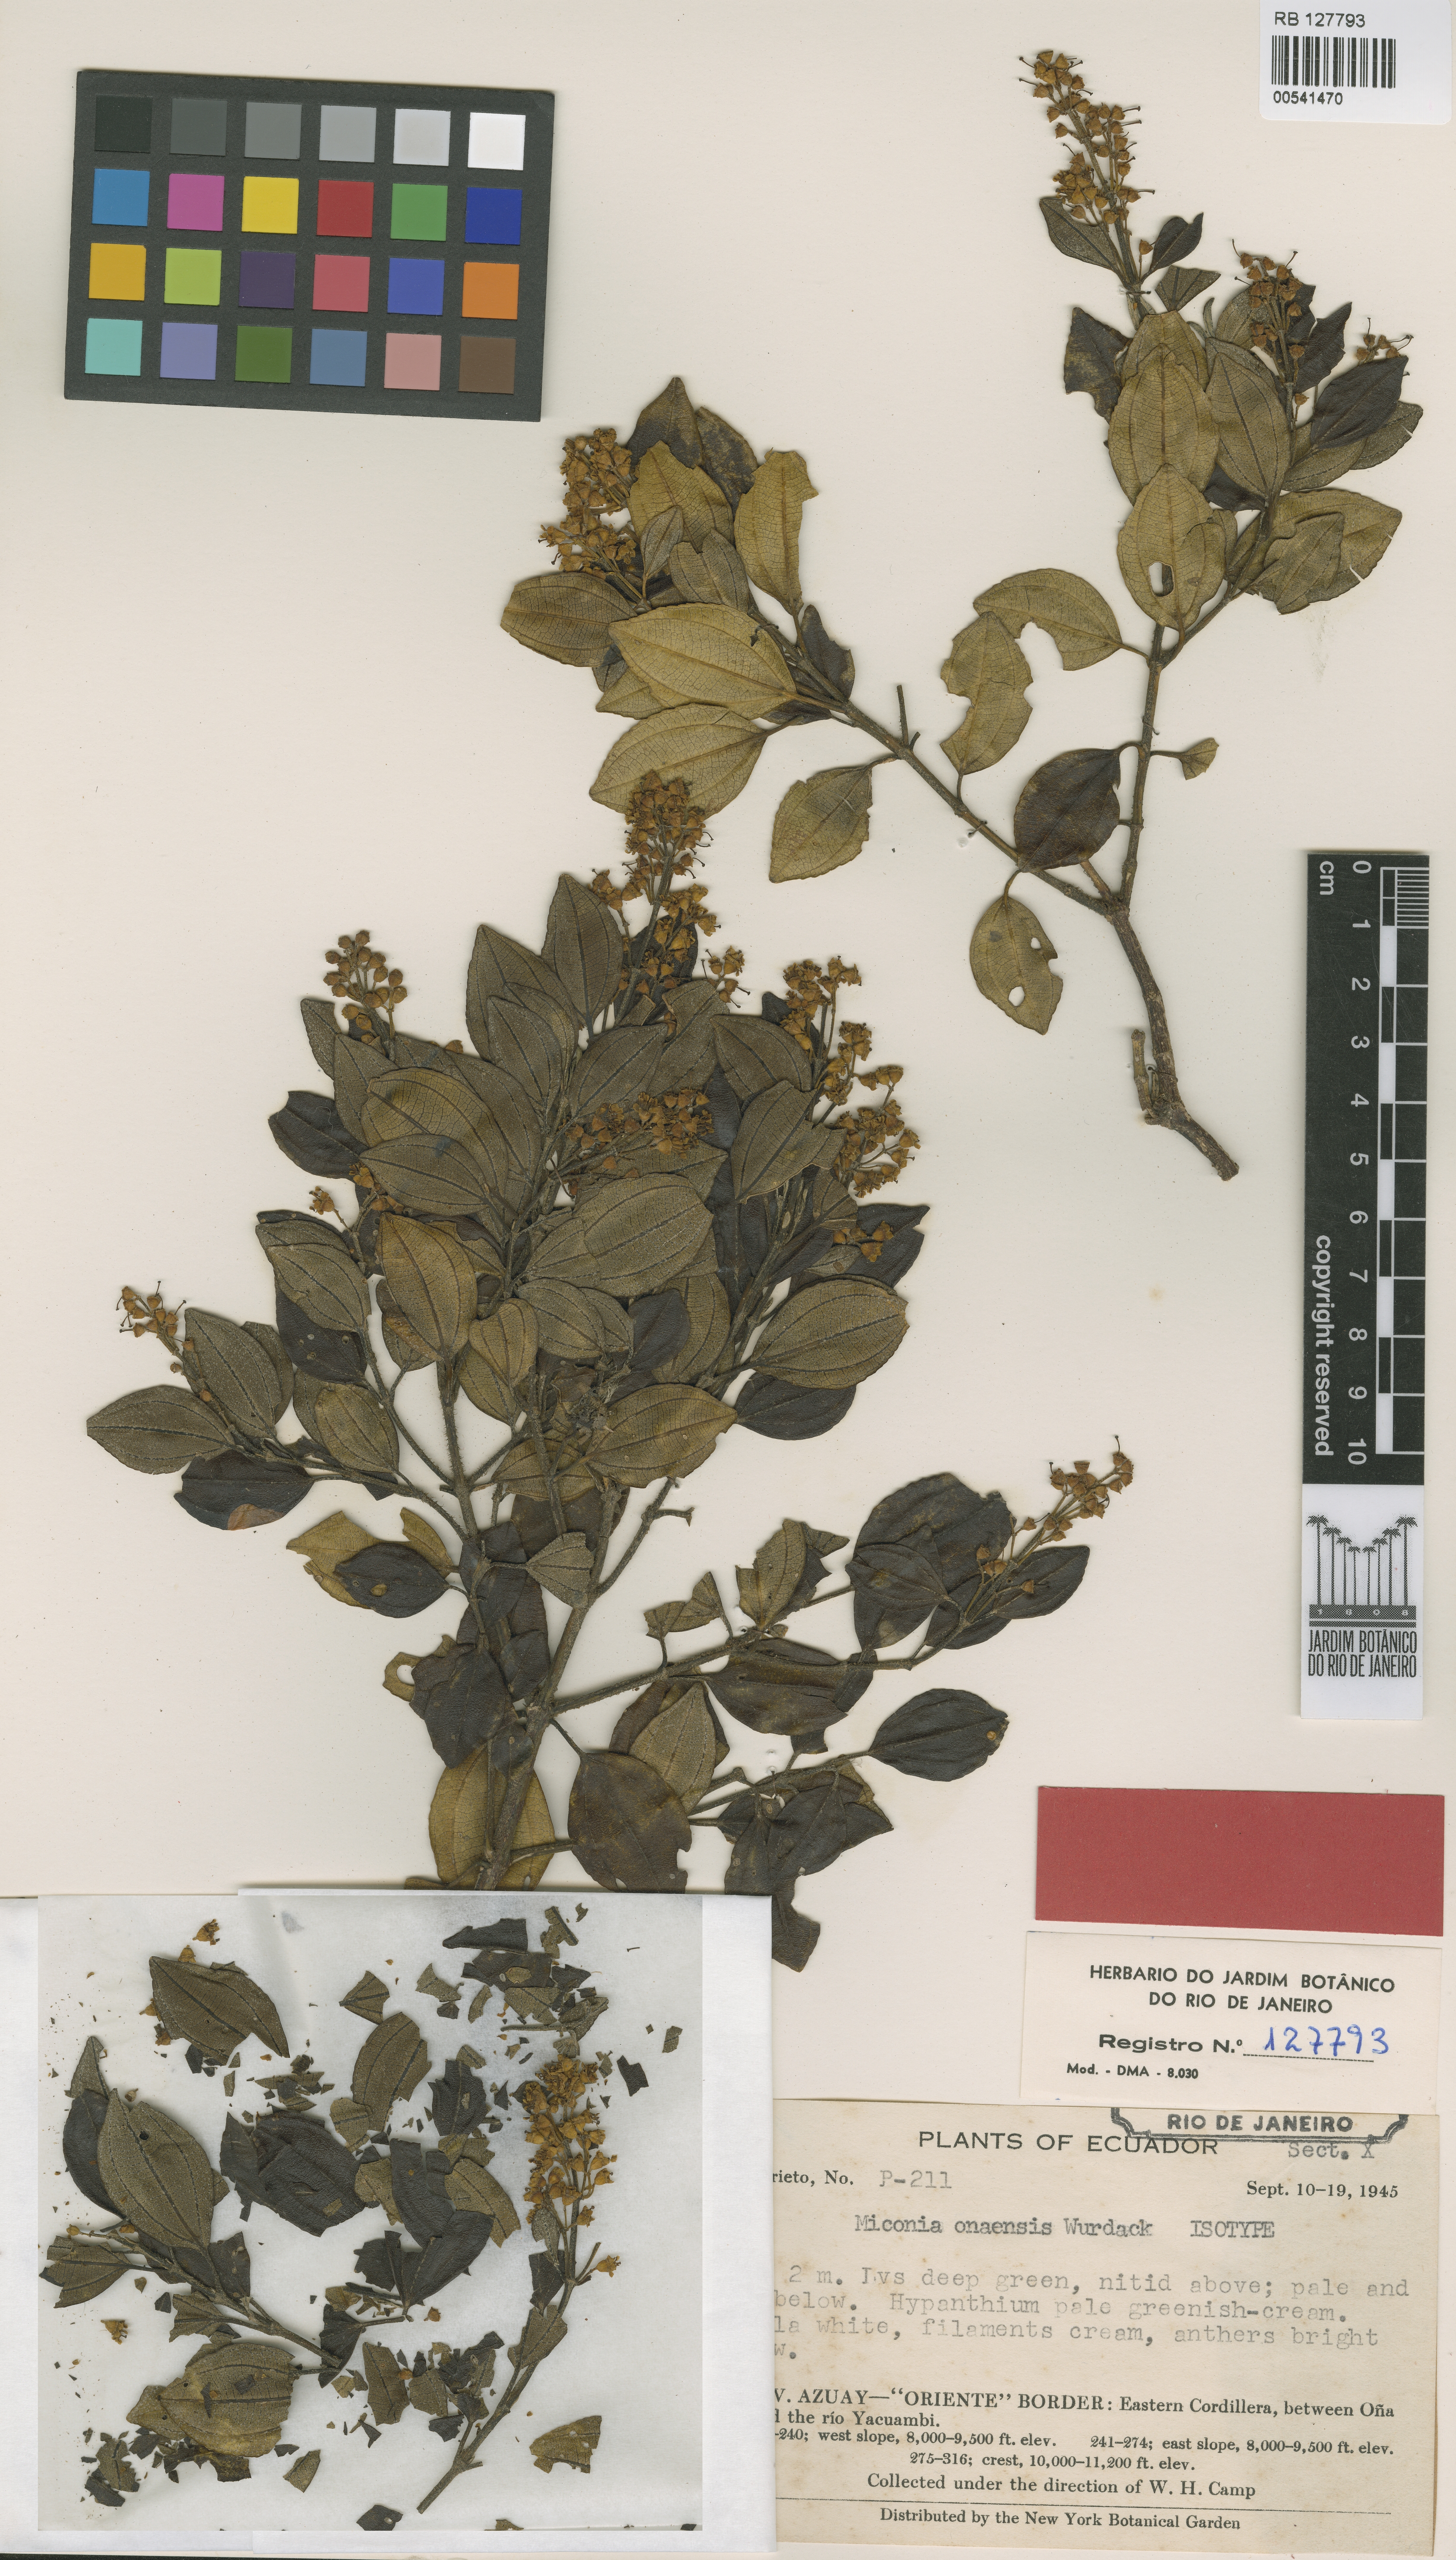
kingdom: Plantae
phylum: Tracheophyta
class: Magnoliopsida
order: Myrtales
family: Melastomataceae
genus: Miconia
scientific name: Miconia onaensis
